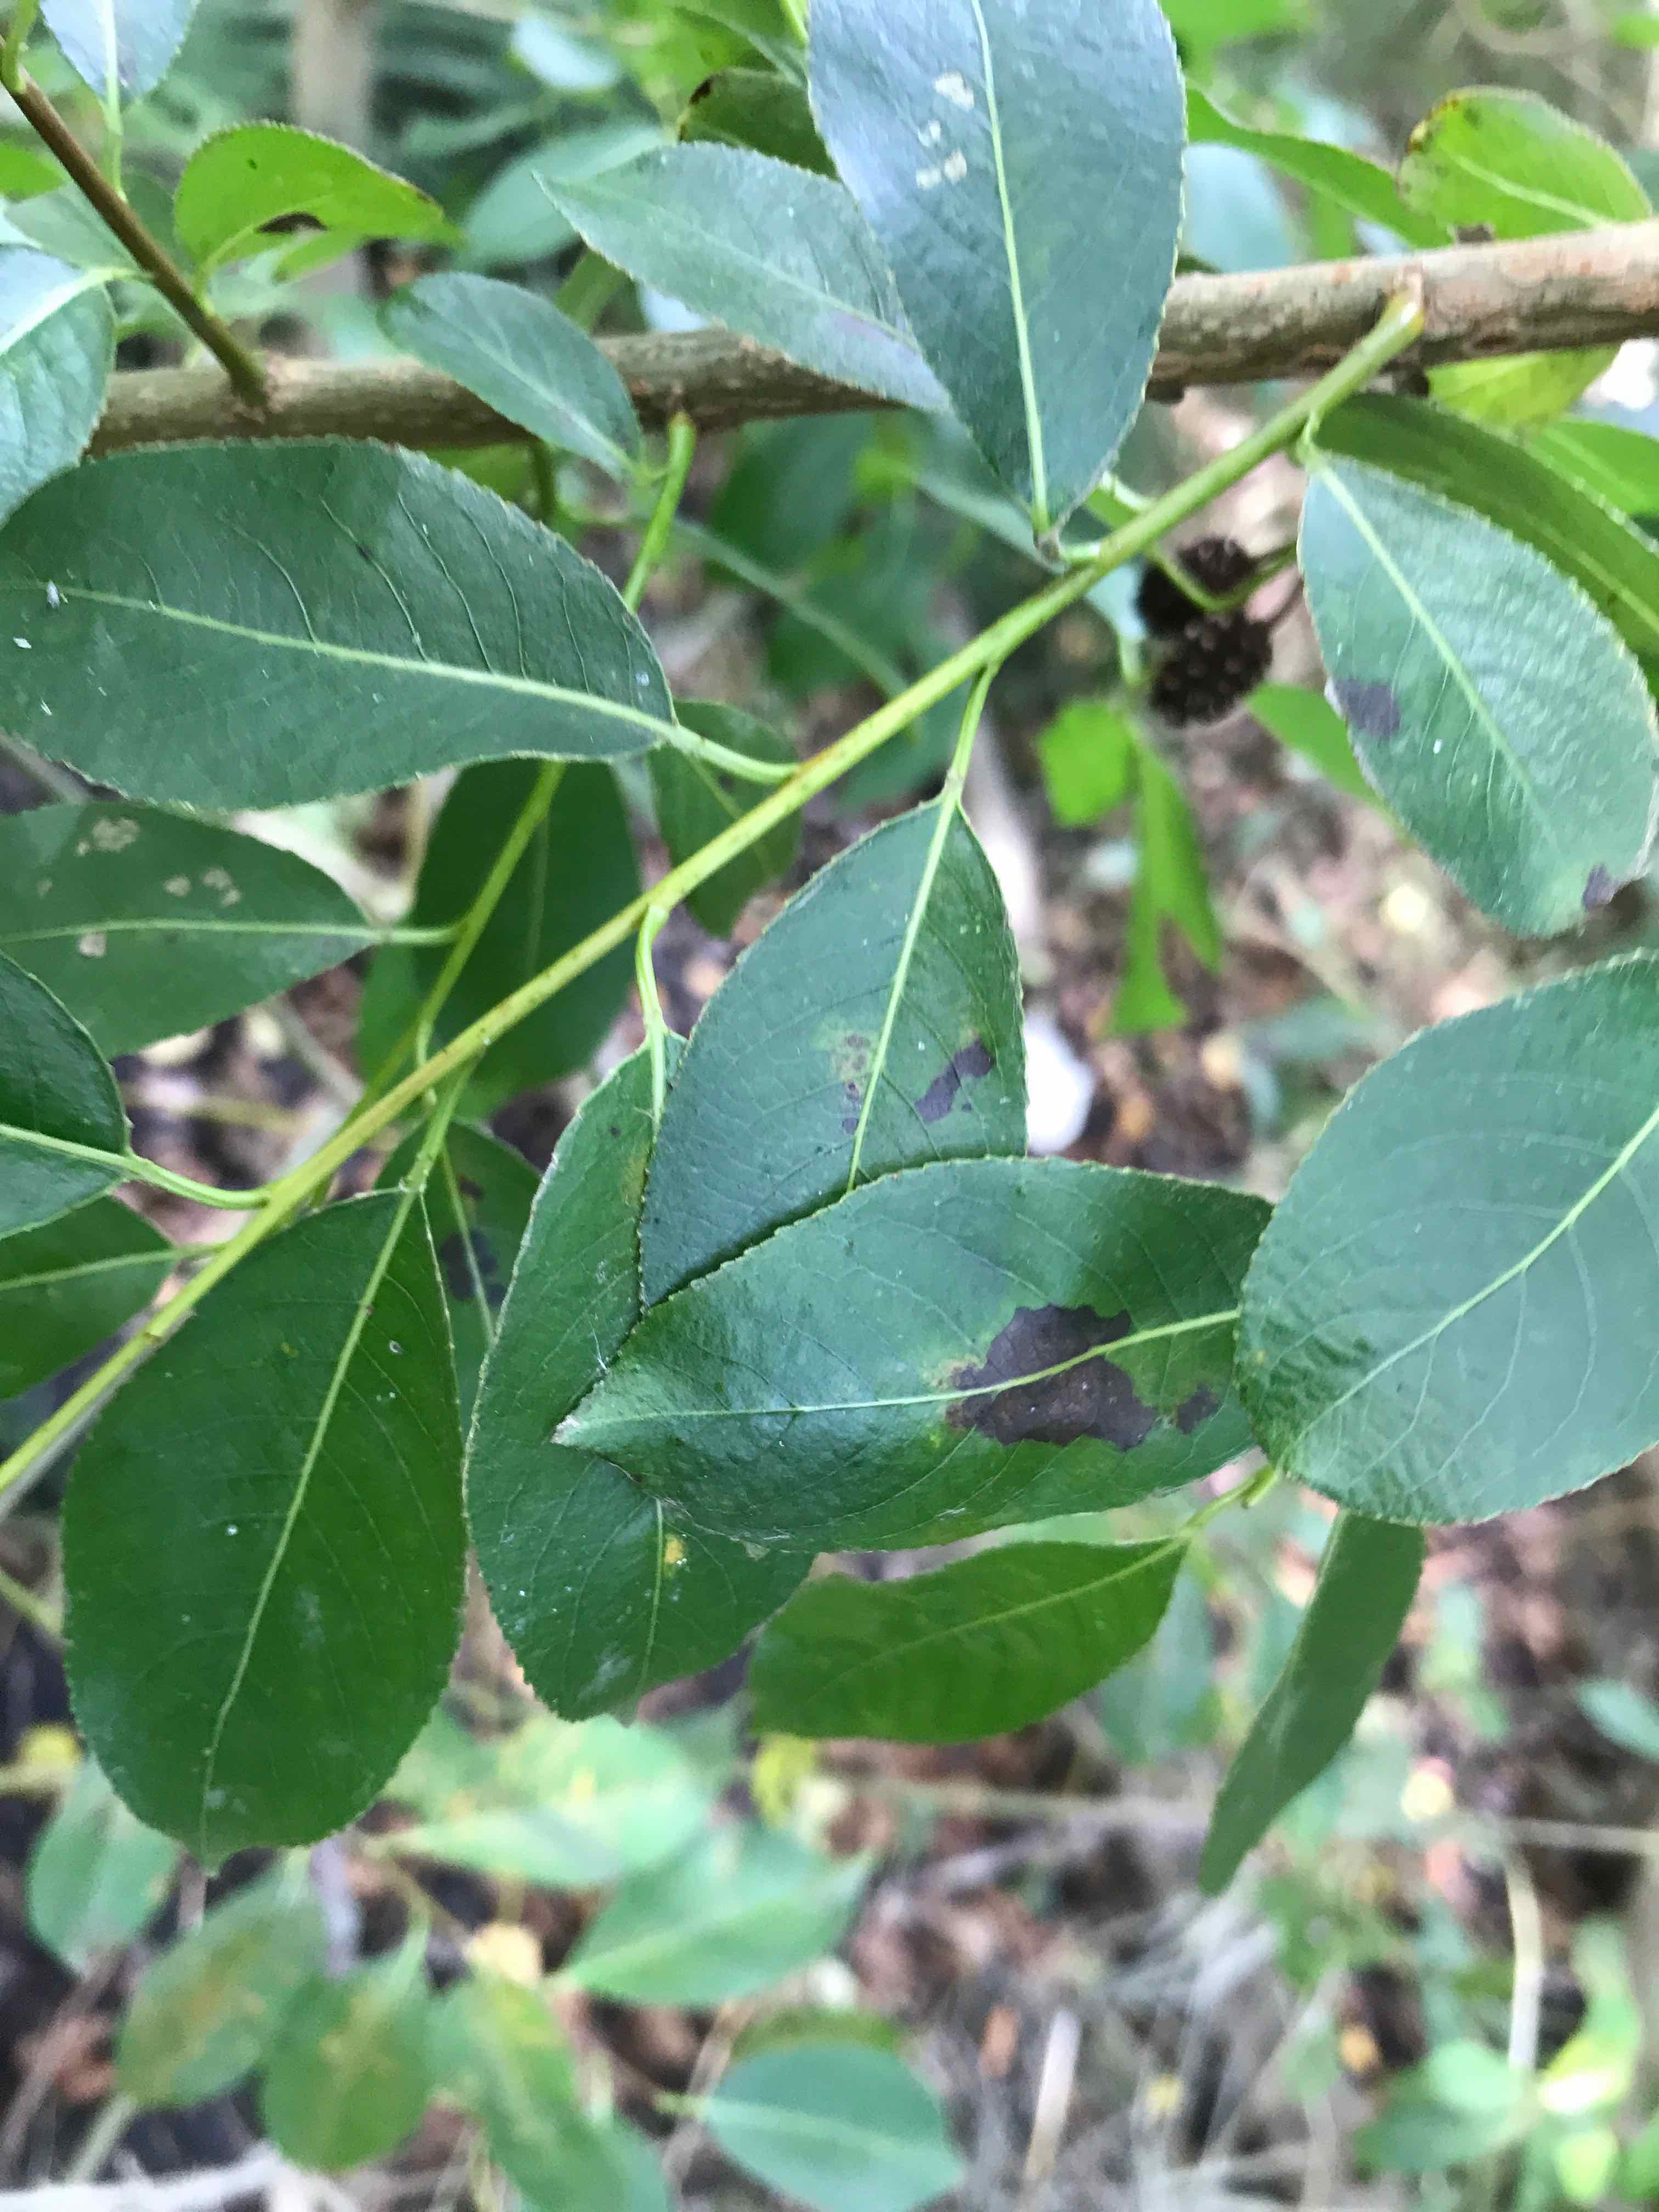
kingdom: Fungi
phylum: Ascomycota
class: Leotiomycetes
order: Rhytismatales
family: Rhytismataceae
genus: Rhytisma
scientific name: Rhytisma salicinum
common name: pile-rynkeplet
